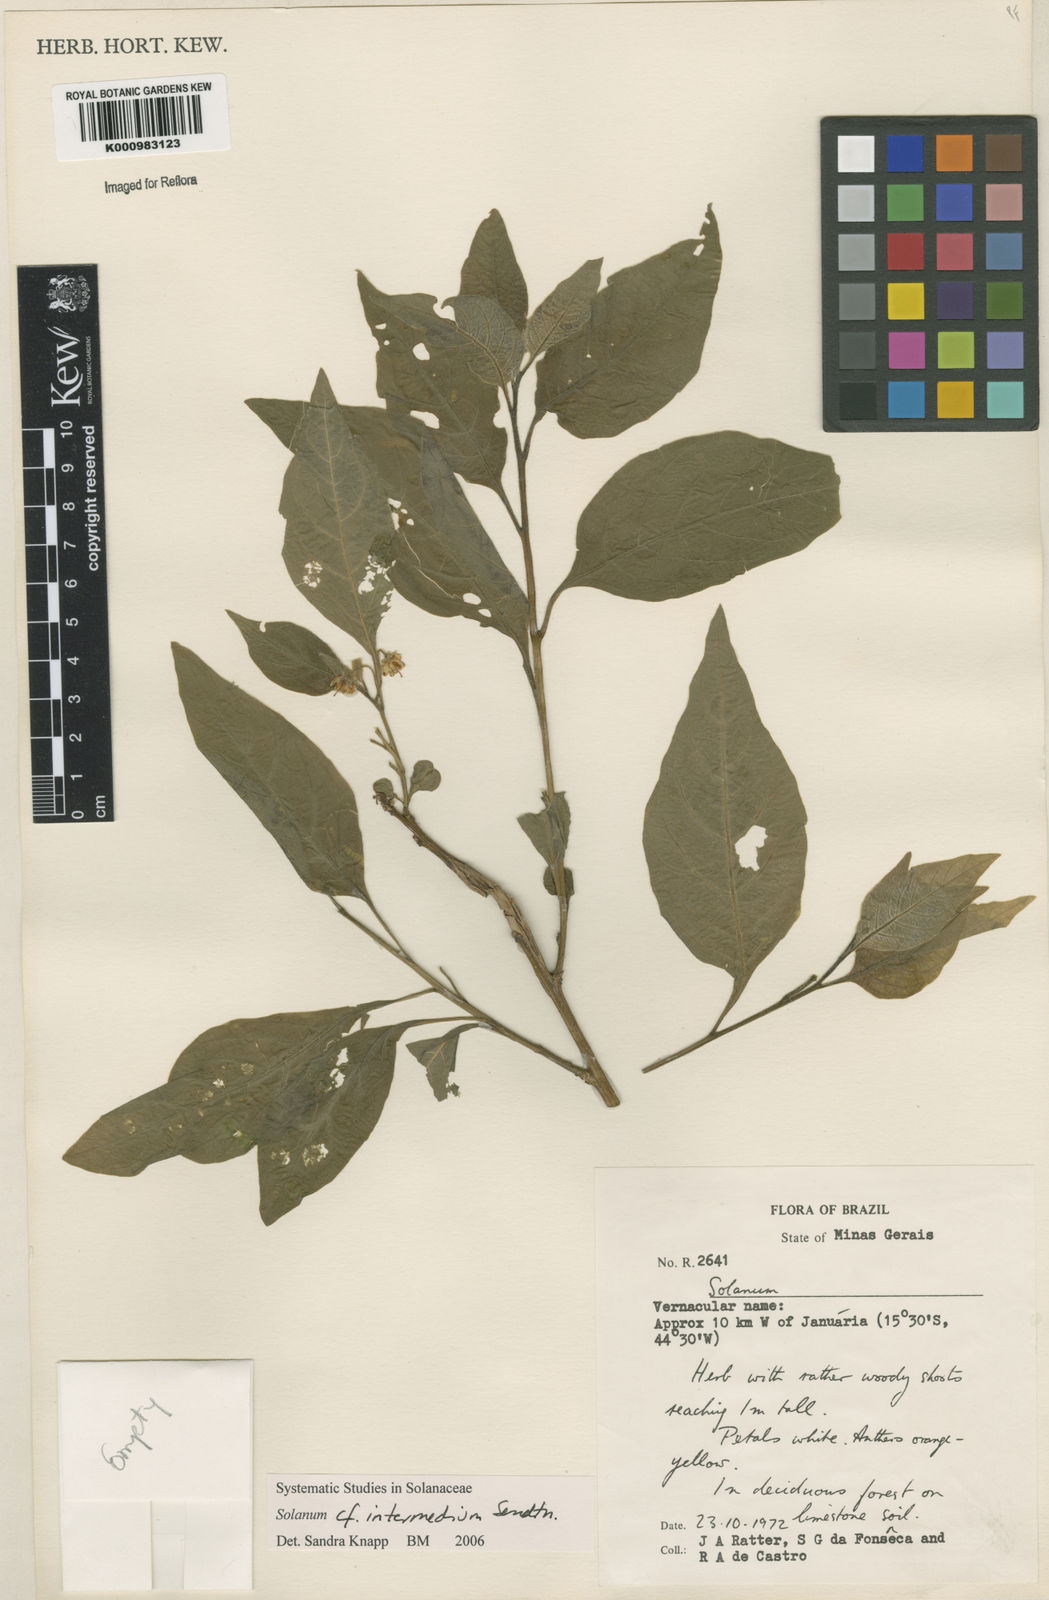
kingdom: Plantae
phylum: Tracheophyta
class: Magnoliopsida
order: Solanales
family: Solanaceae
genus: Solanum
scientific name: Solanum intermedium
